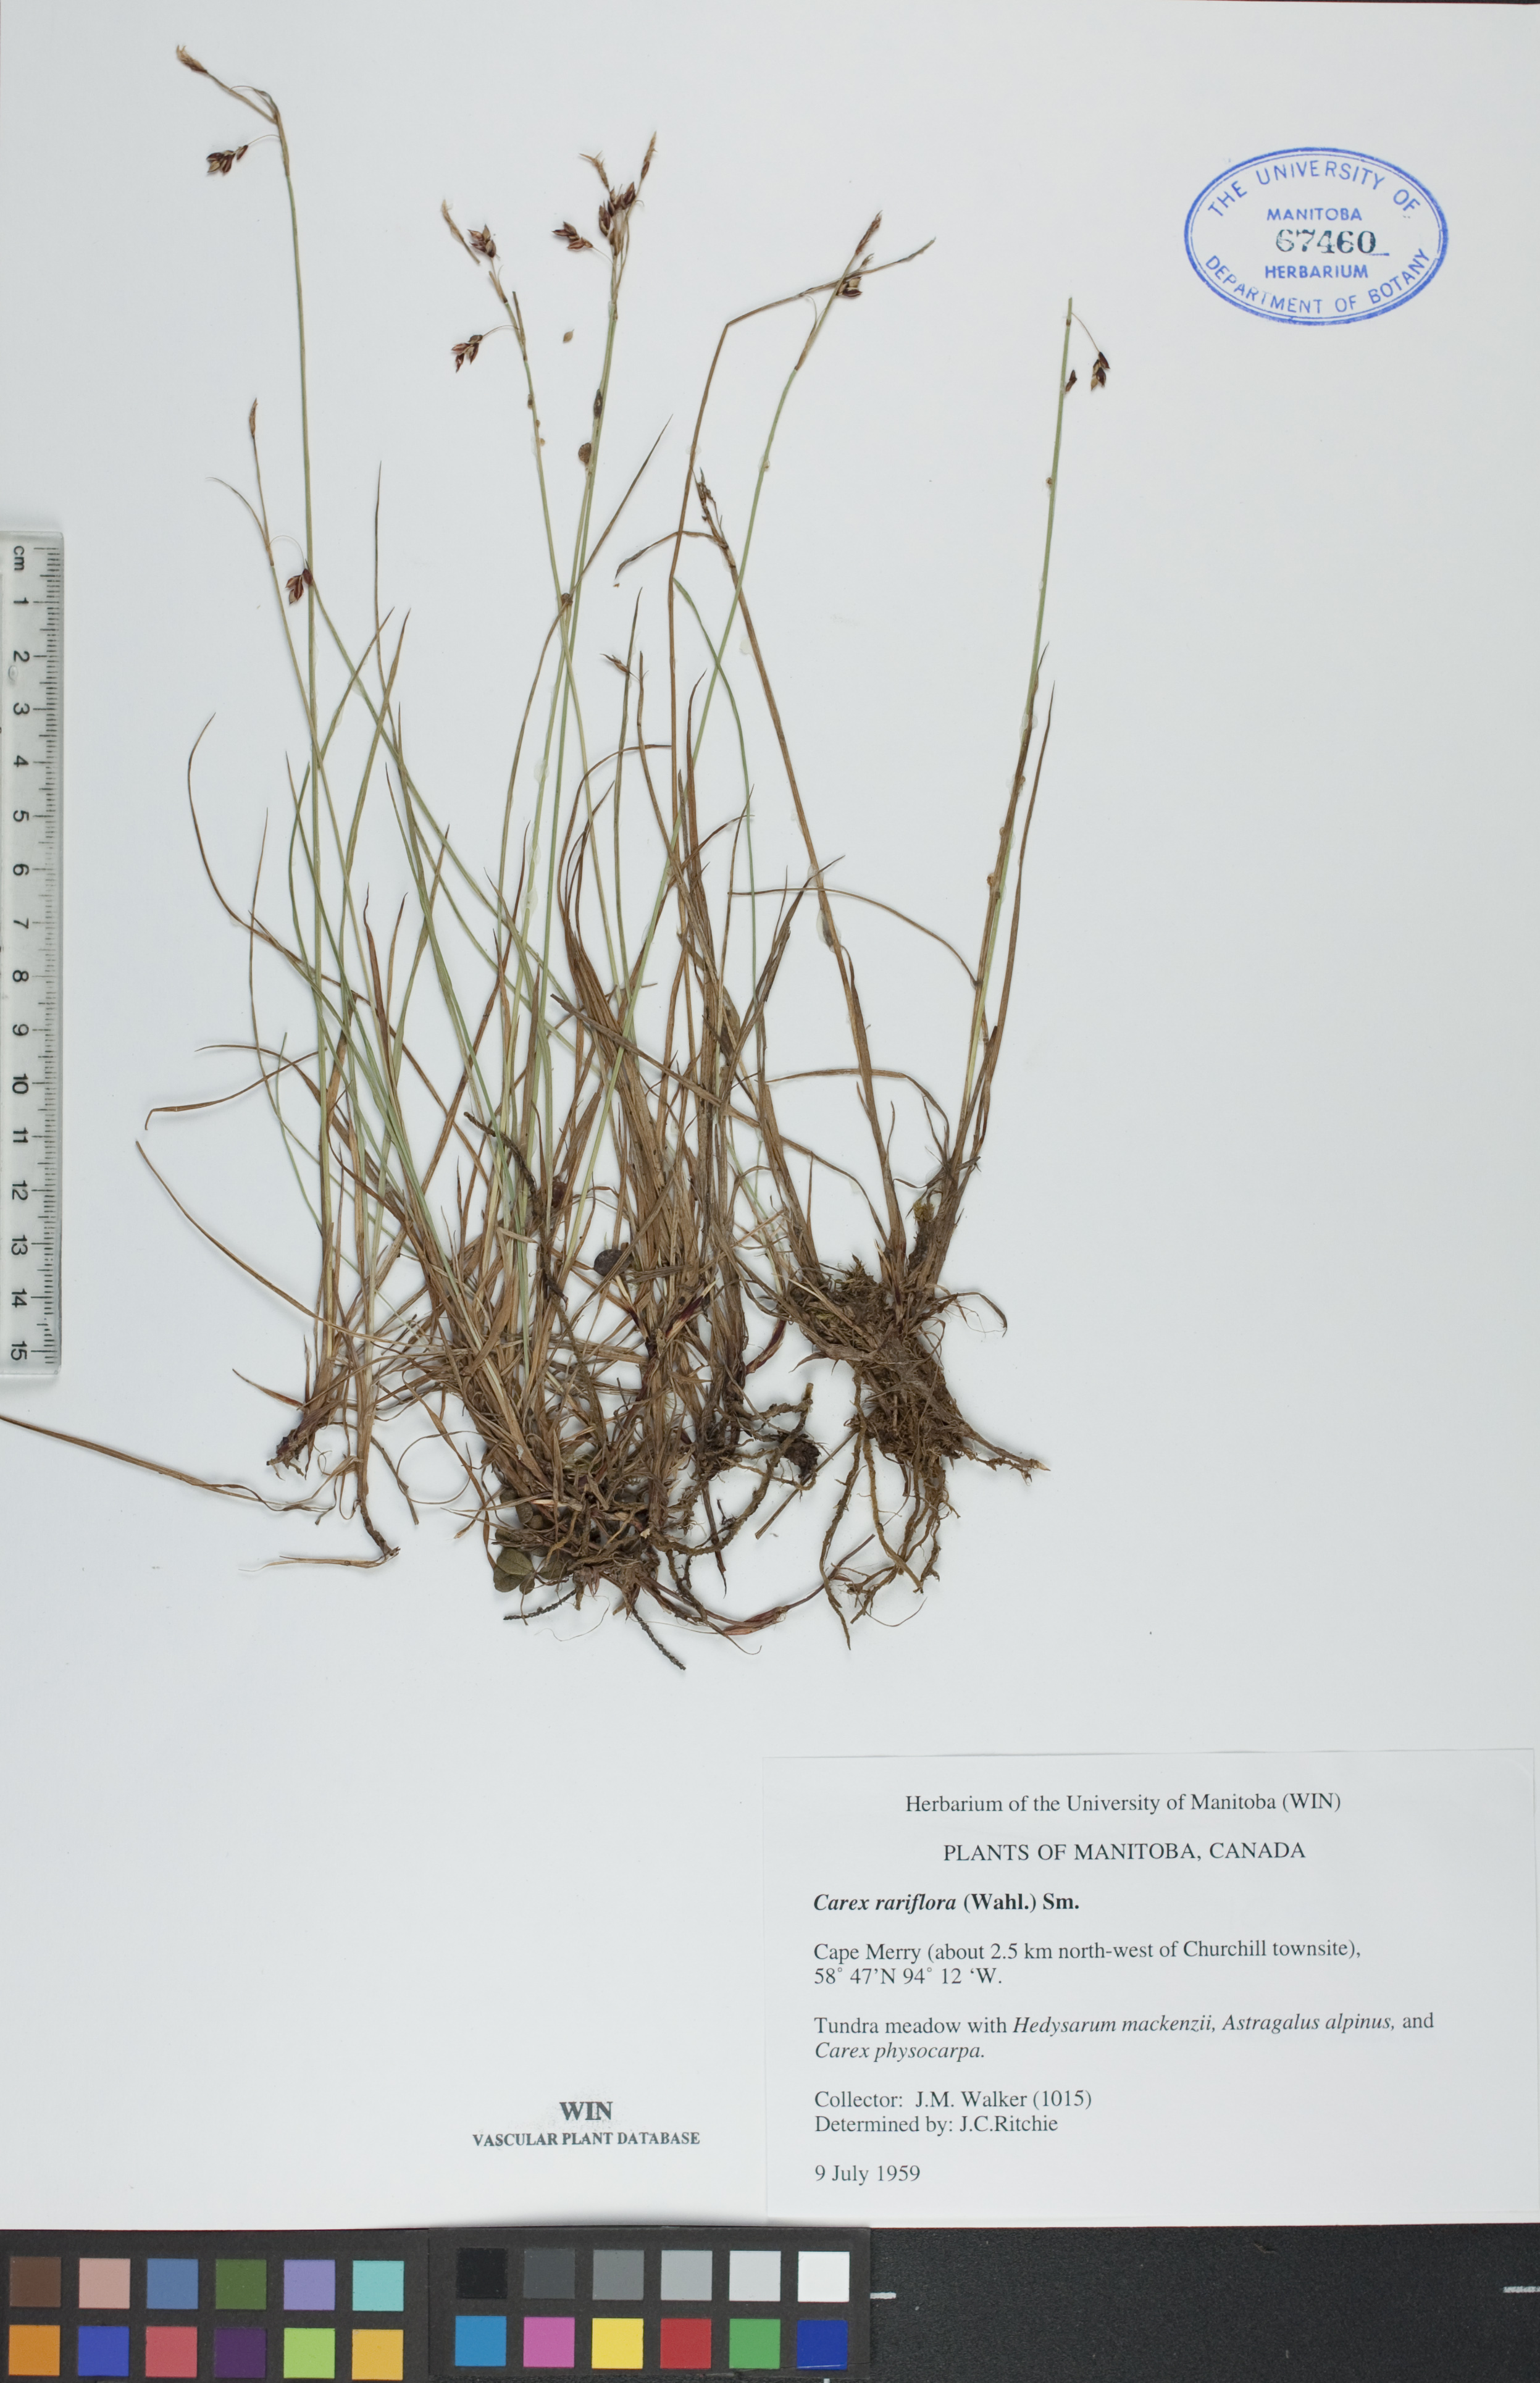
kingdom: Plantae
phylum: Tracheophyta
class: Liliopsida
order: Poales
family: Cyperaceae
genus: Carex
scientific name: Carex rariflora
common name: Loose-flowered alpine sedge
